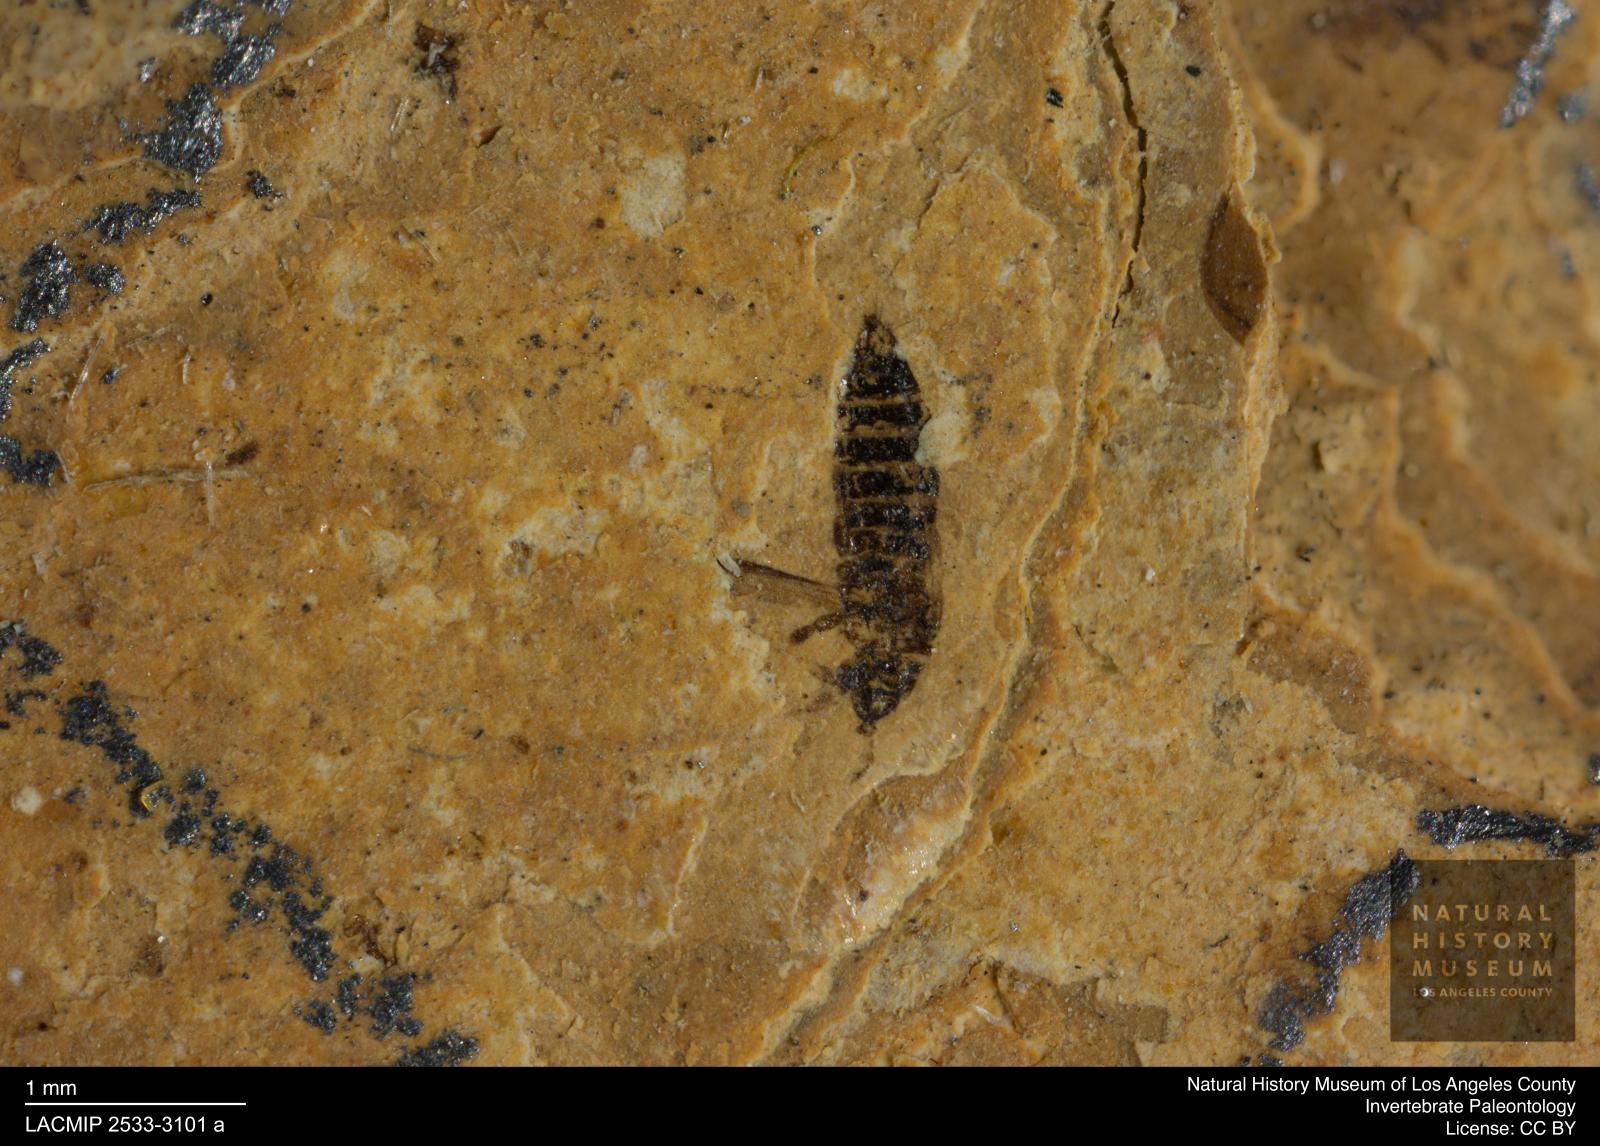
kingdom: Animalia
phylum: Arthropoda
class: Insecta
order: Thysanoptera
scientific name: Thysanoptera
